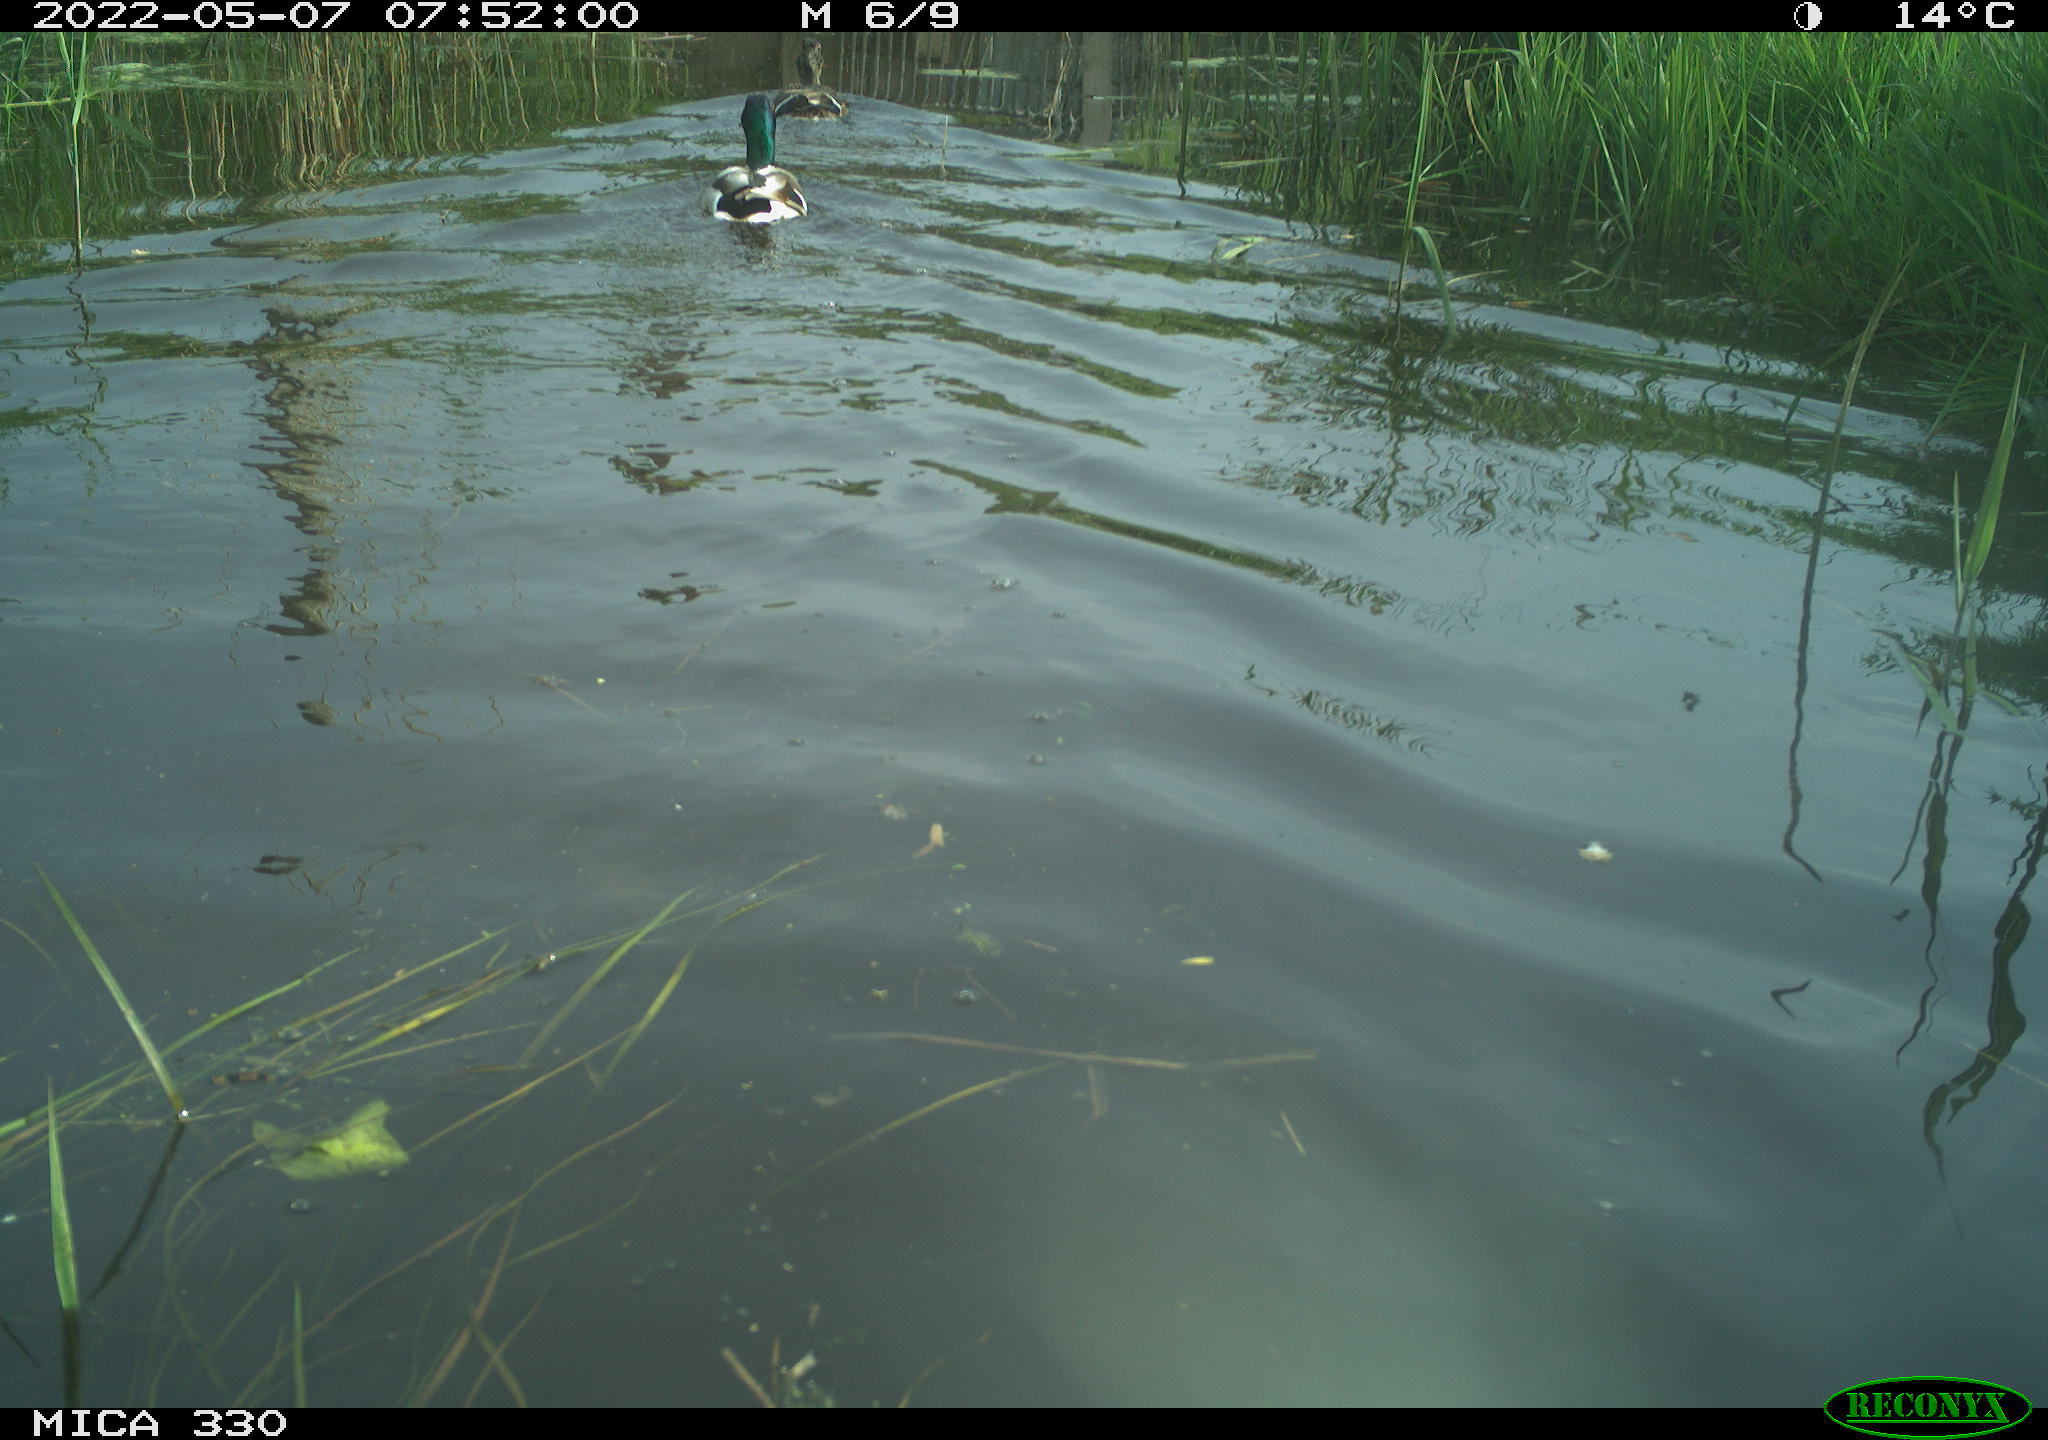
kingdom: Animalia
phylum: Chordata
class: Aves
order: Anseriformes
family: Anatidae
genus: Anas
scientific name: Anas platyrhynchos
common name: Mallard
